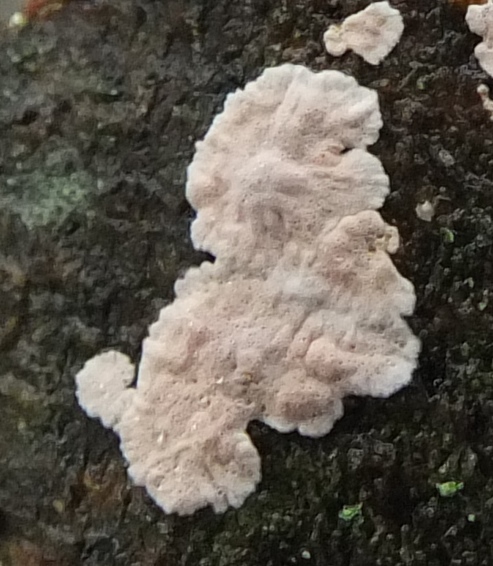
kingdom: Fungi
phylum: Basidiomycota
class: Agaricomycetes
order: Corticiales
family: Corticiaceae
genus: Corticium
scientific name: Corticium roseum
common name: rosa barkskind
